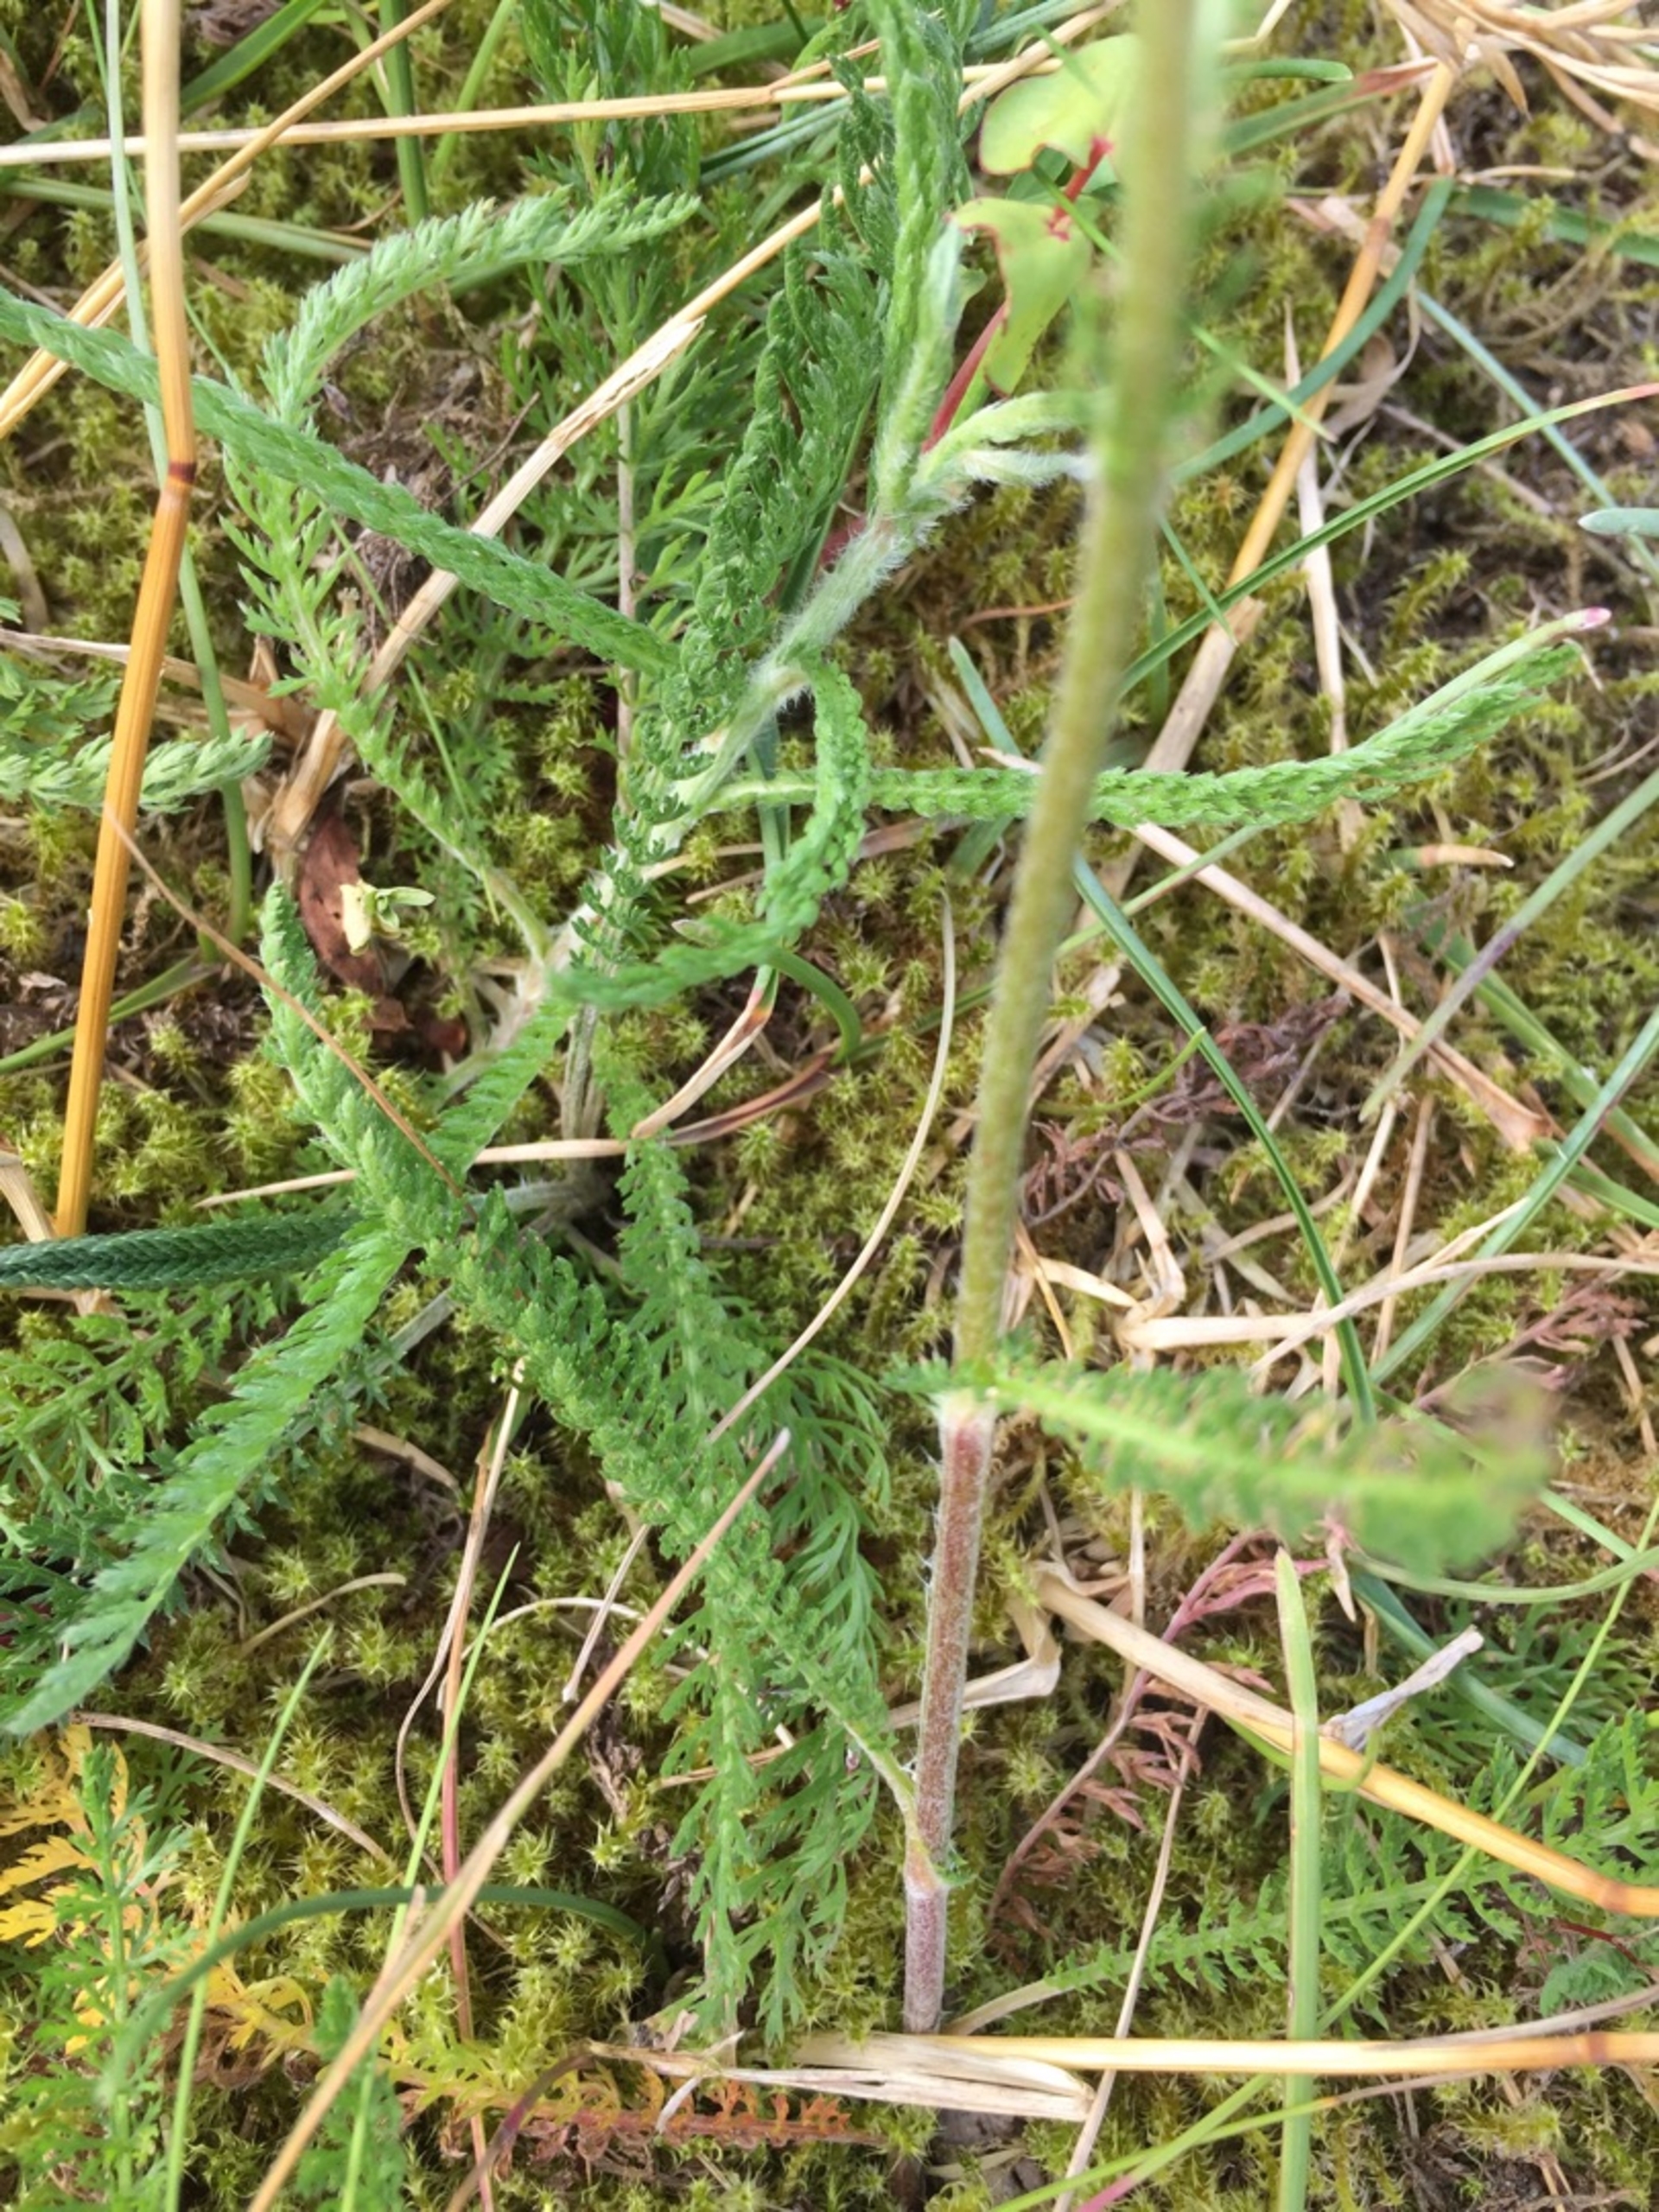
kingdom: Plantae
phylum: Tracheophyta
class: Magnoliopsida
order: Asterales
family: Asteraceae
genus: Achillea
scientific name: Achillea millefolium
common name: Almindelig røllike
